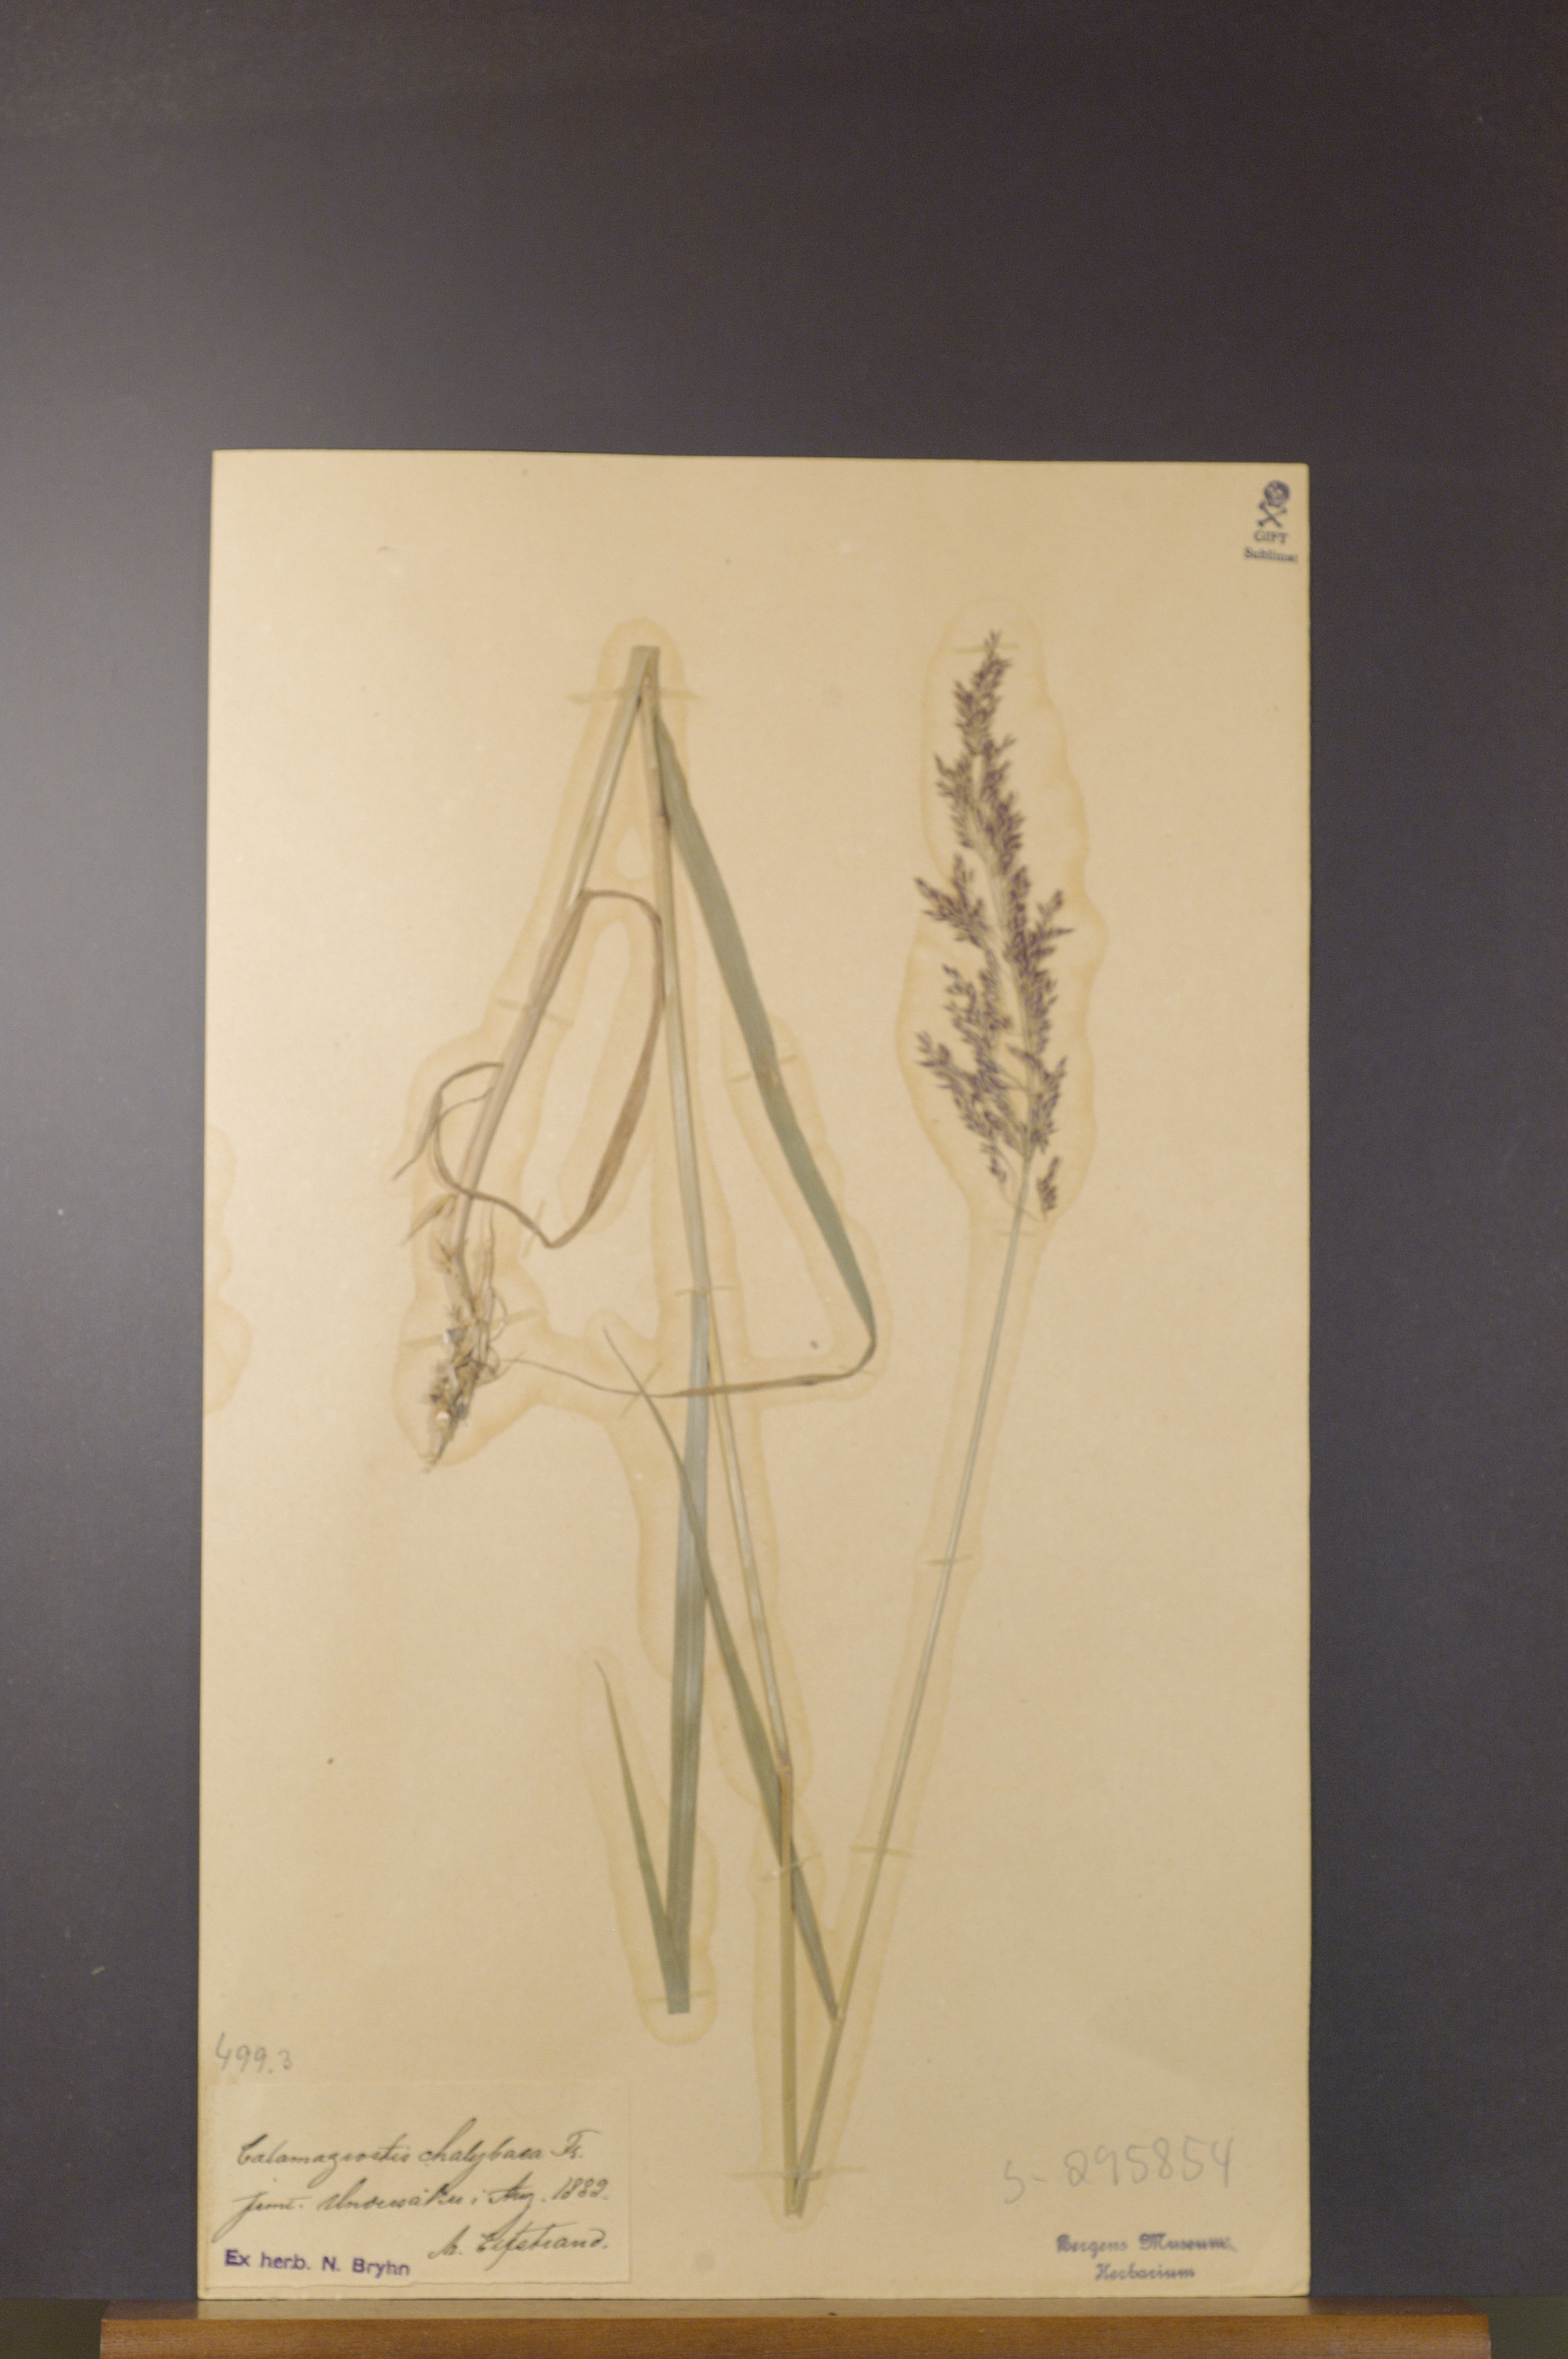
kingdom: Plantae
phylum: Tracheophyta
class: Liliopsida
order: Poales
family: Poaceae
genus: Calamagrostis
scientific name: Calamagrostis chalybaea
